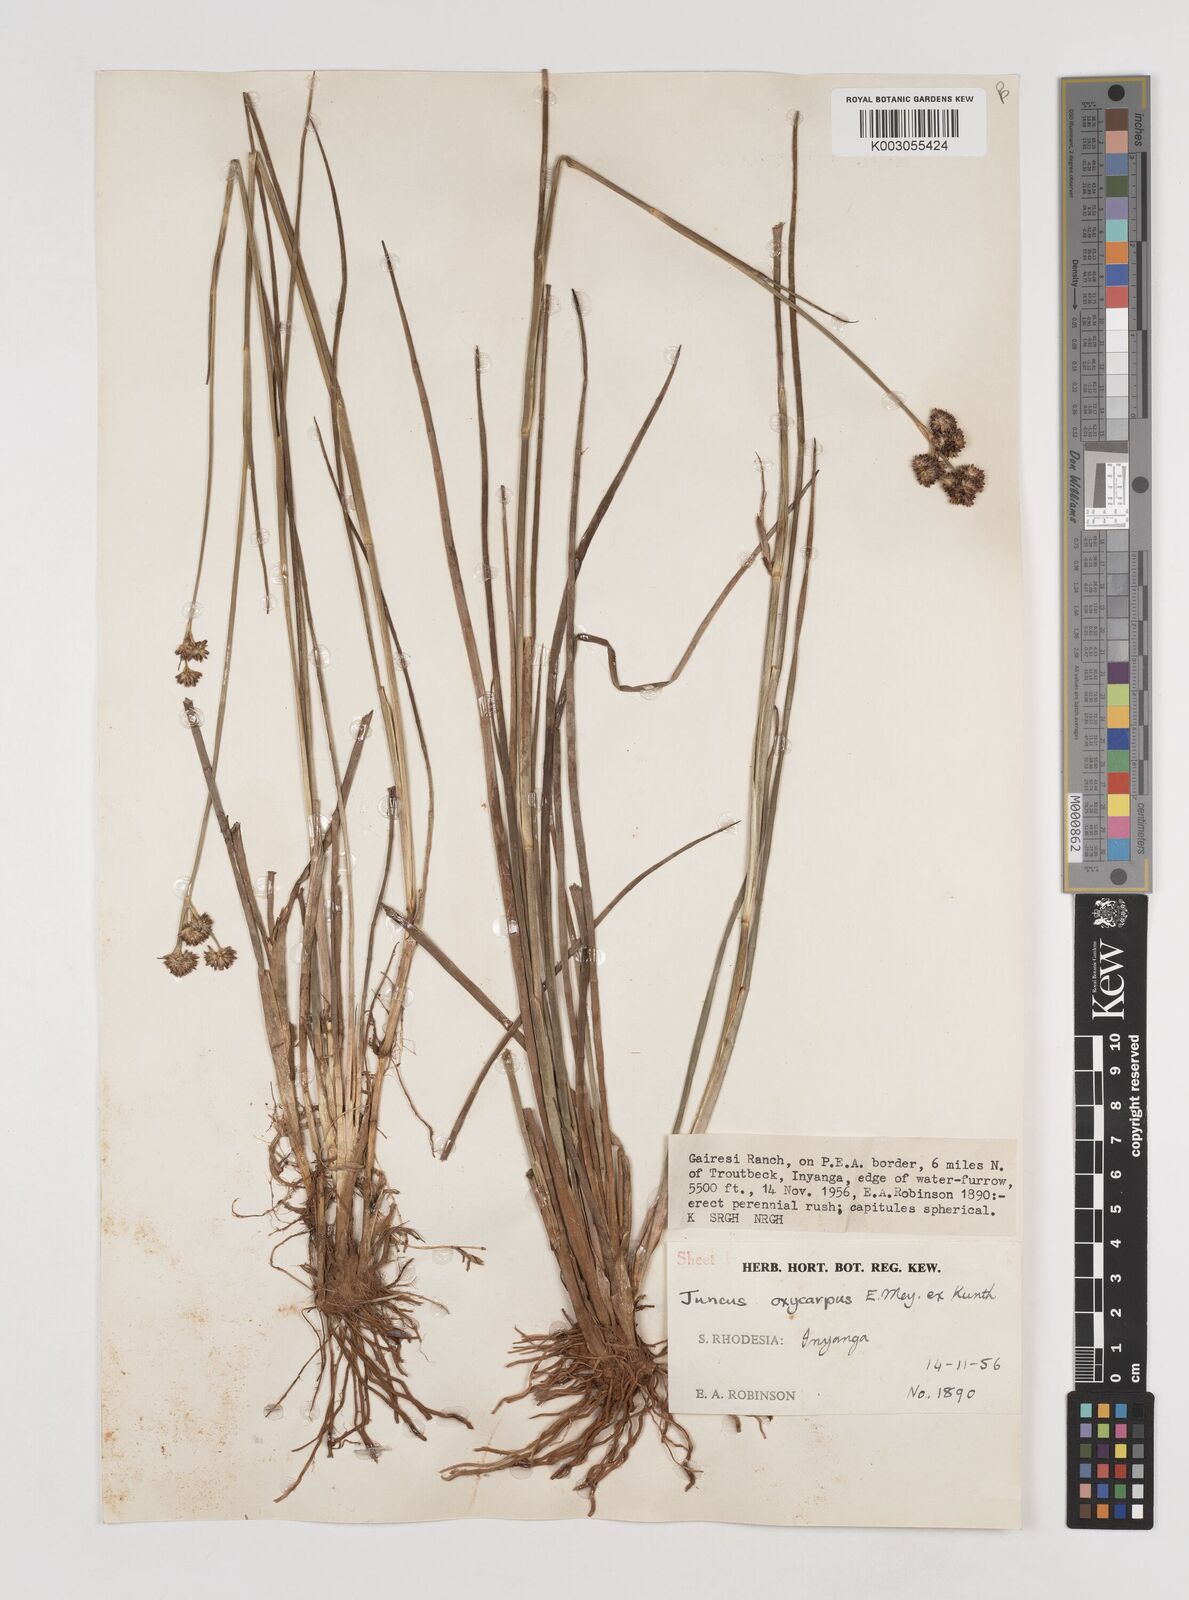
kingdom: Plantae
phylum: Tracheophyta
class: Liliopsida
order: Poales
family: Juncaceae
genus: Juncus
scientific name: Juncus oxycarpus
